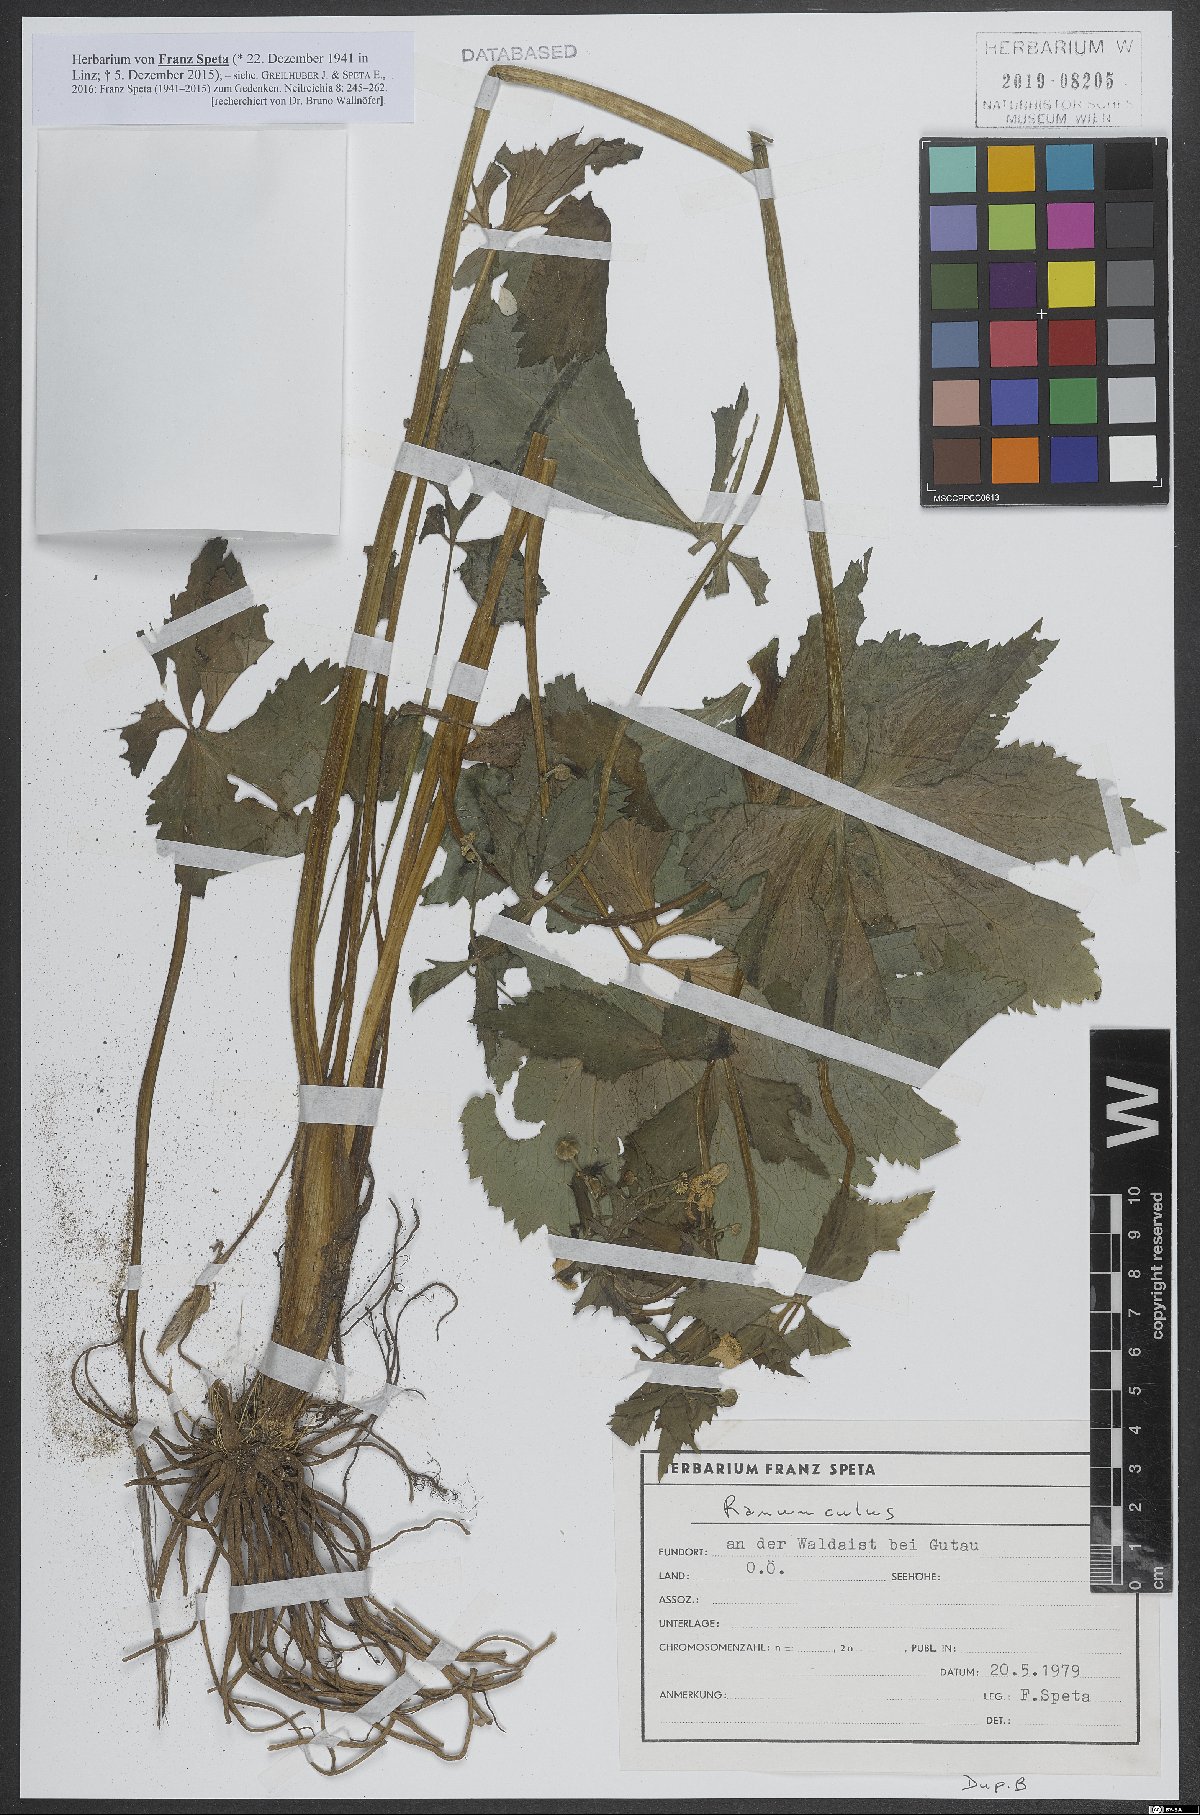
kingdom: Plantae
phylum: Tracheophyta
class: Magnoliopsida
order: Ranunculales
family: Ranunculaceae
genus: Ranunculus
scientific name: Ranunculus
